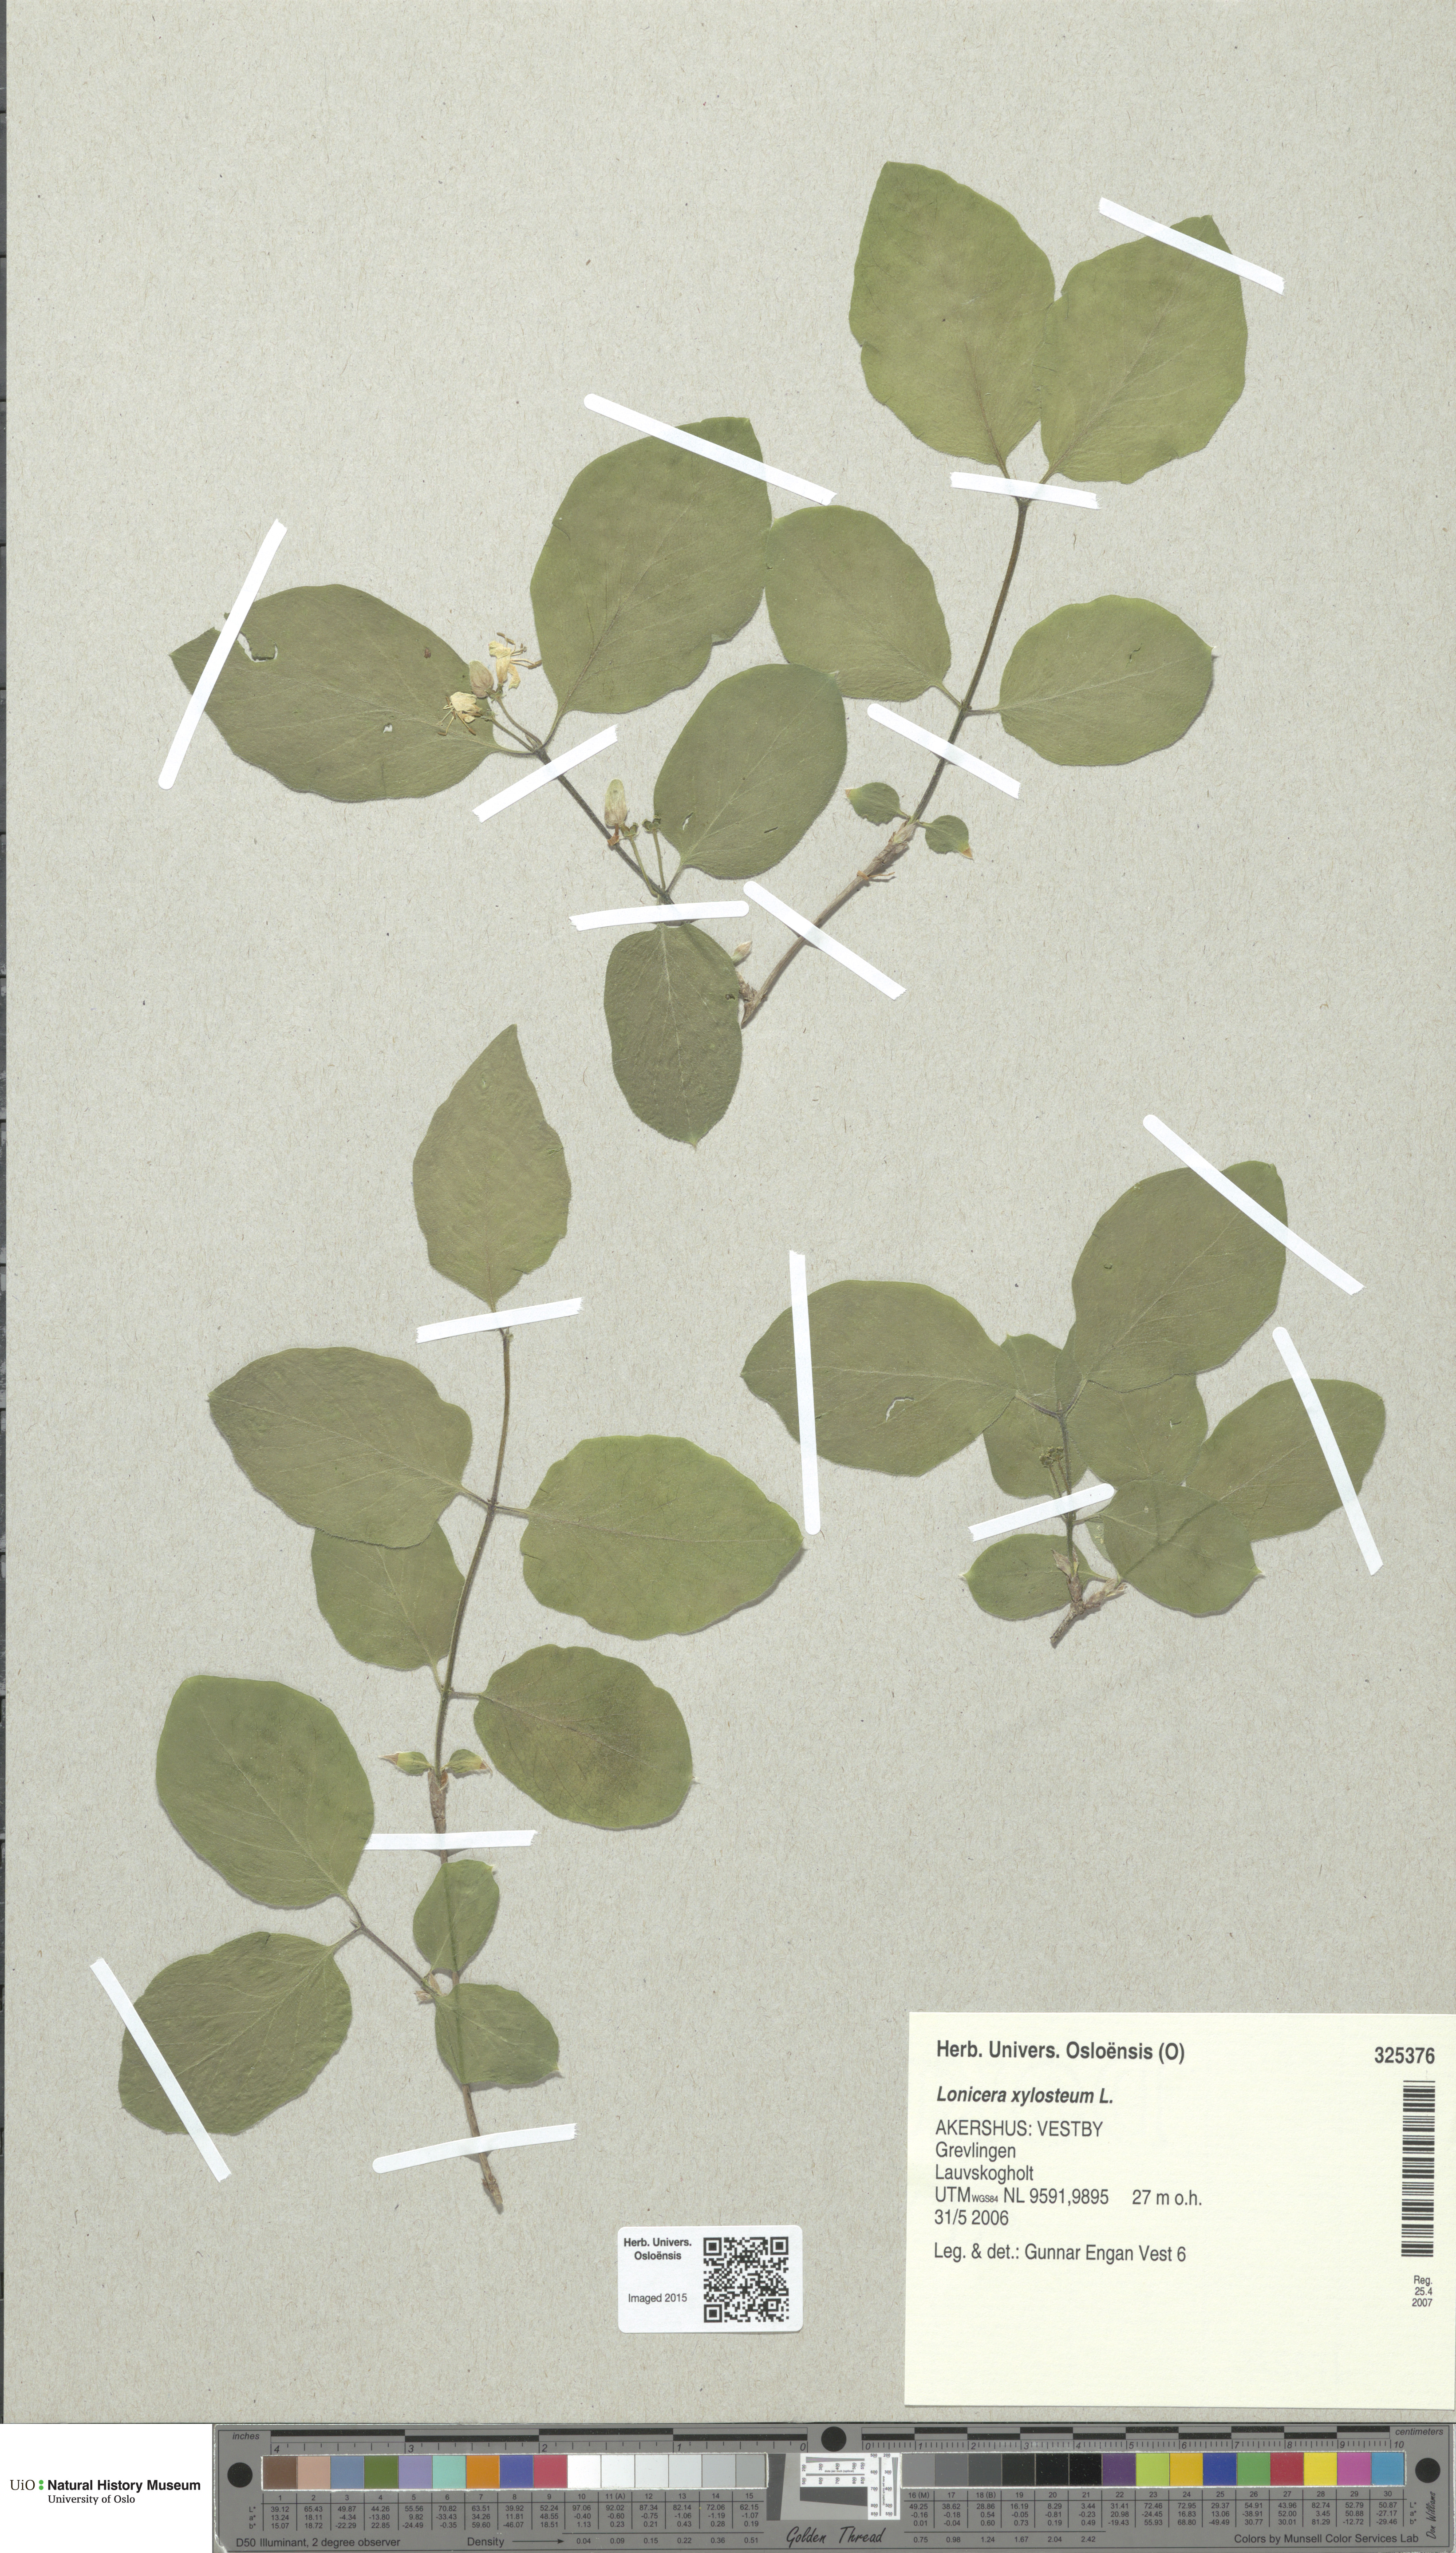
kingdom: Plantae
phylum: Tracheophyta
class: Magnoliopsida
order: Dipsacales
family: Caprifoliaceae
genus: Lonicera
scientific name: Lonicera xylosteum
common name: Fly honeysuckle
